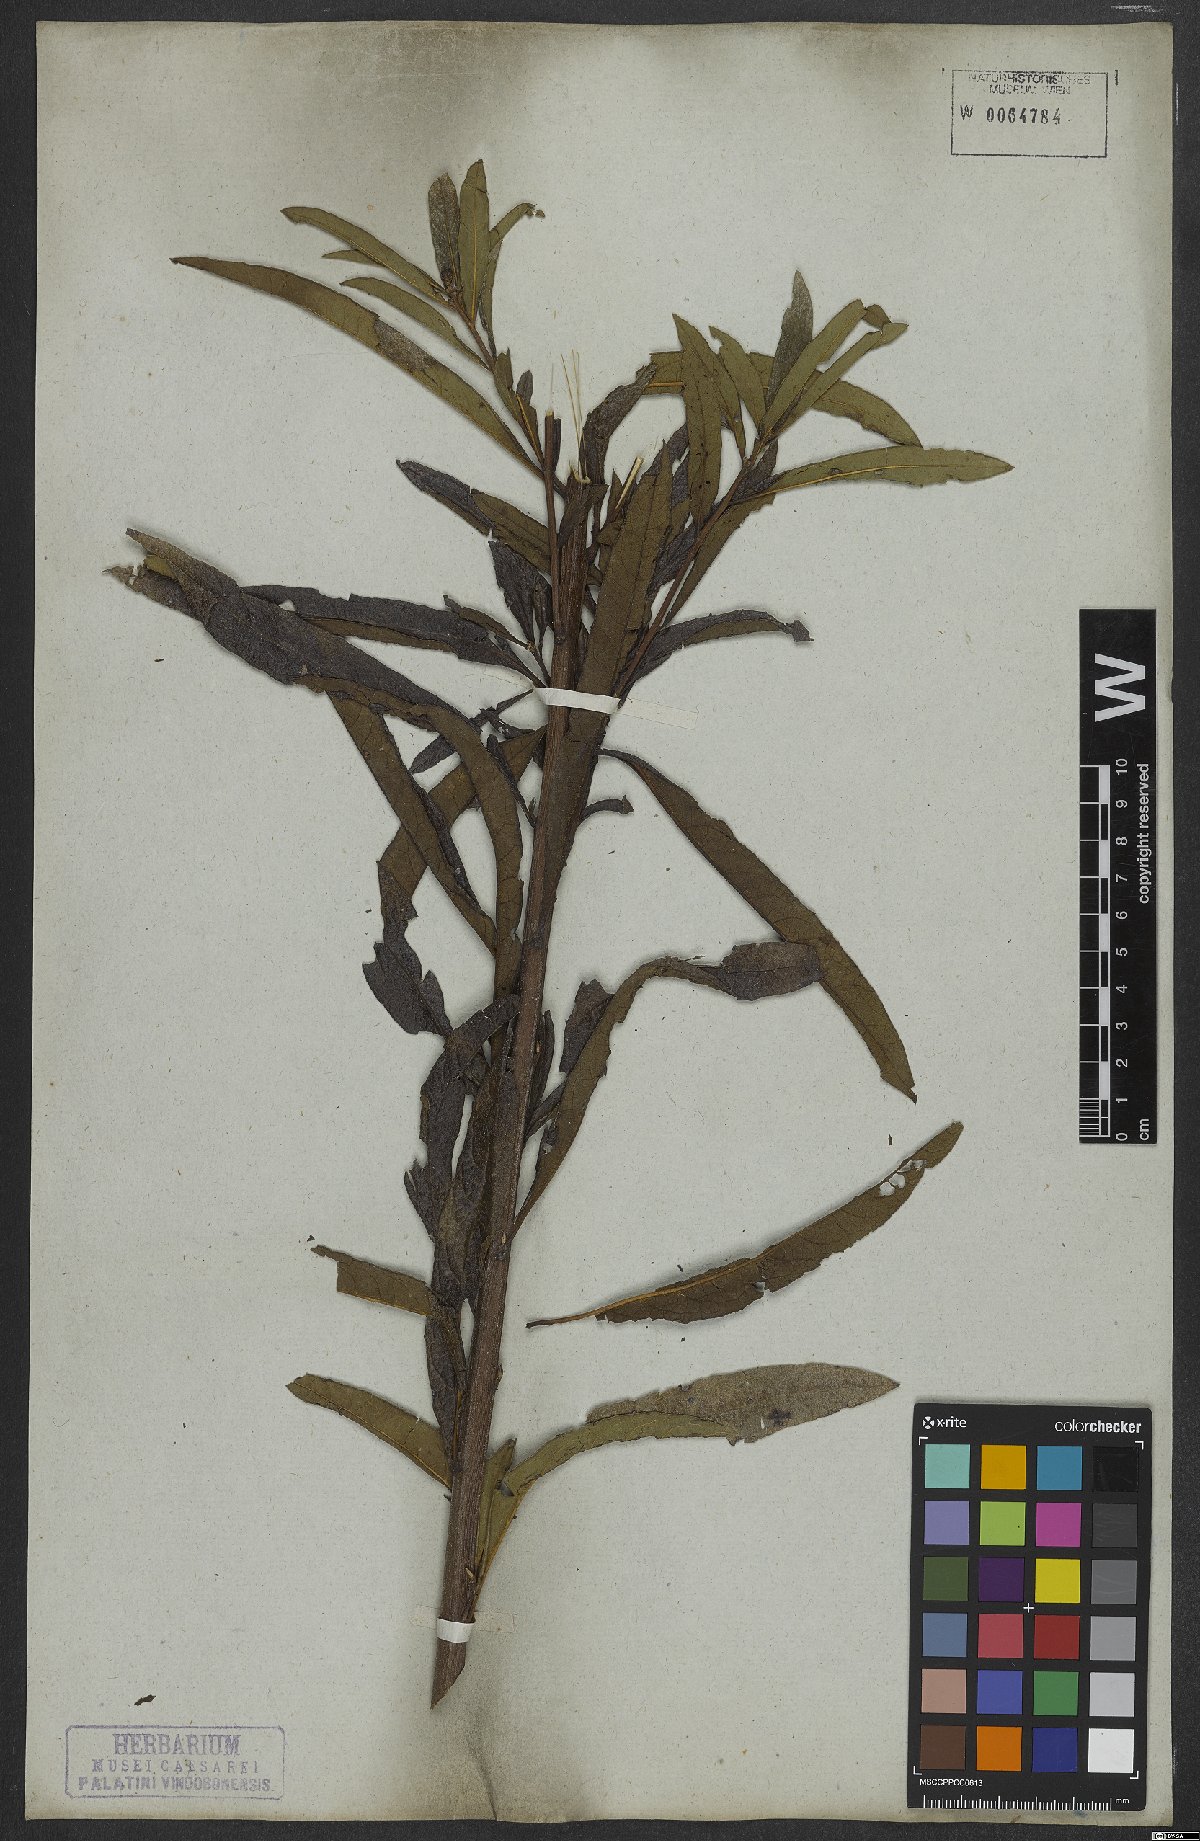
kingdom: Plantae
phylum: Tracheophyta
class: Magnoliopsida
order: Asterales
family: Asteraceae
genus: Vernonanthura
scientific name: Vernonanthura cymosa
